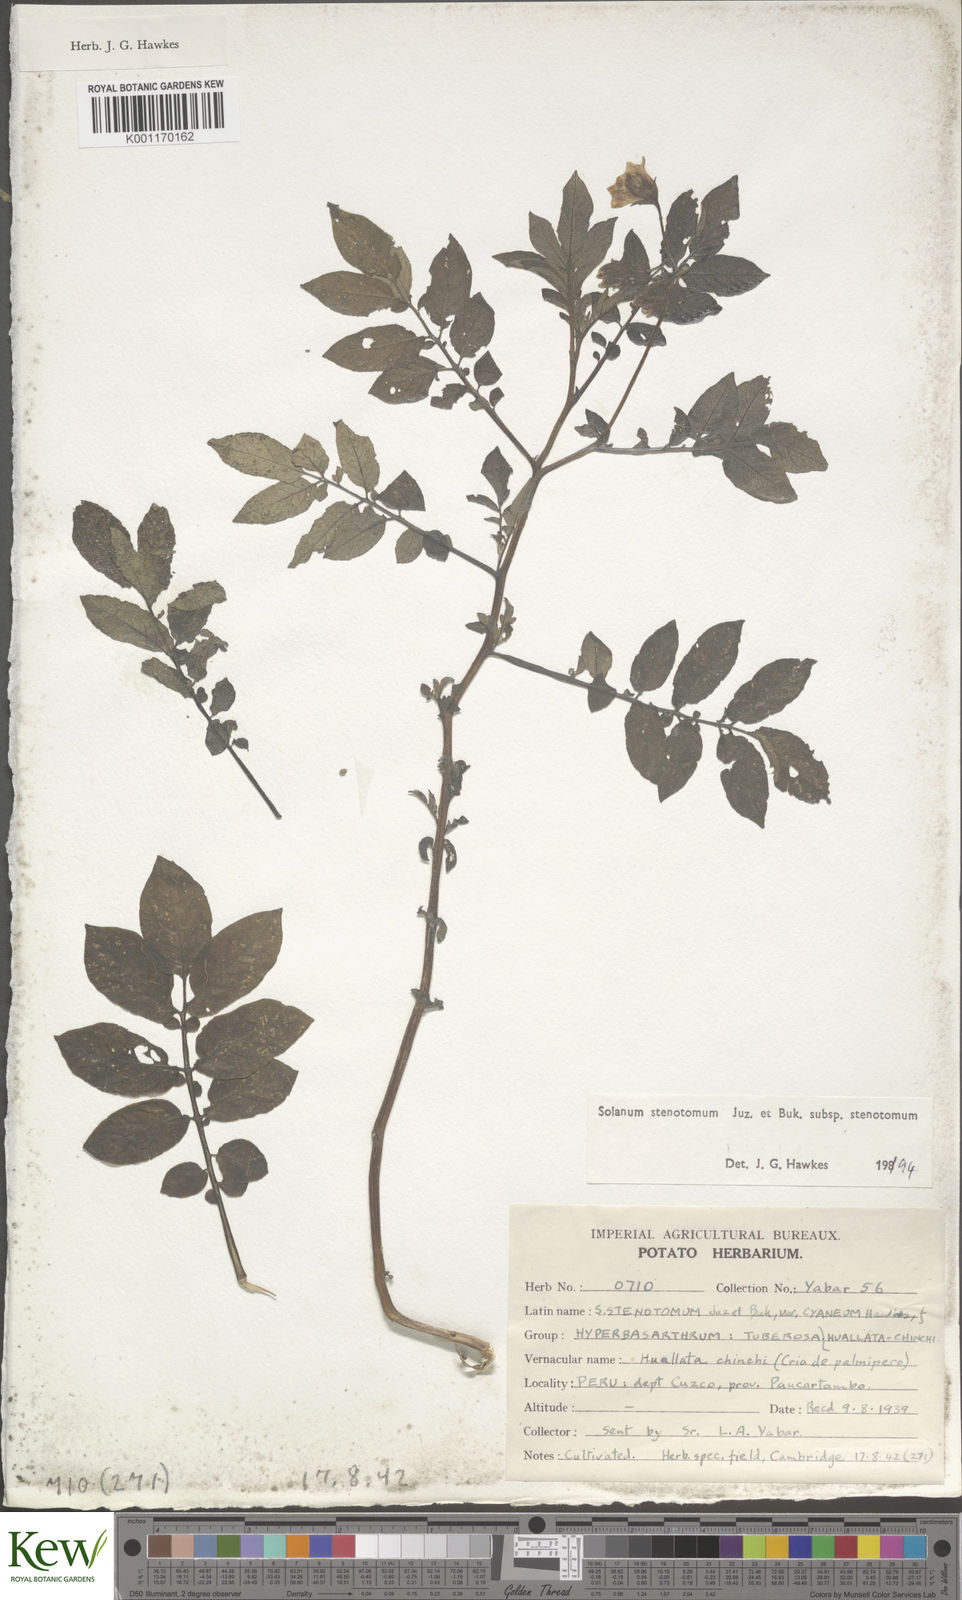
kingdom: Plantae
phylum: Tracheophyta
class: Magnoliopsida
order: Solanales
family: Solanaceae
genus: Solanum
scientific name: Solanum tuberosum
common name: Potato
